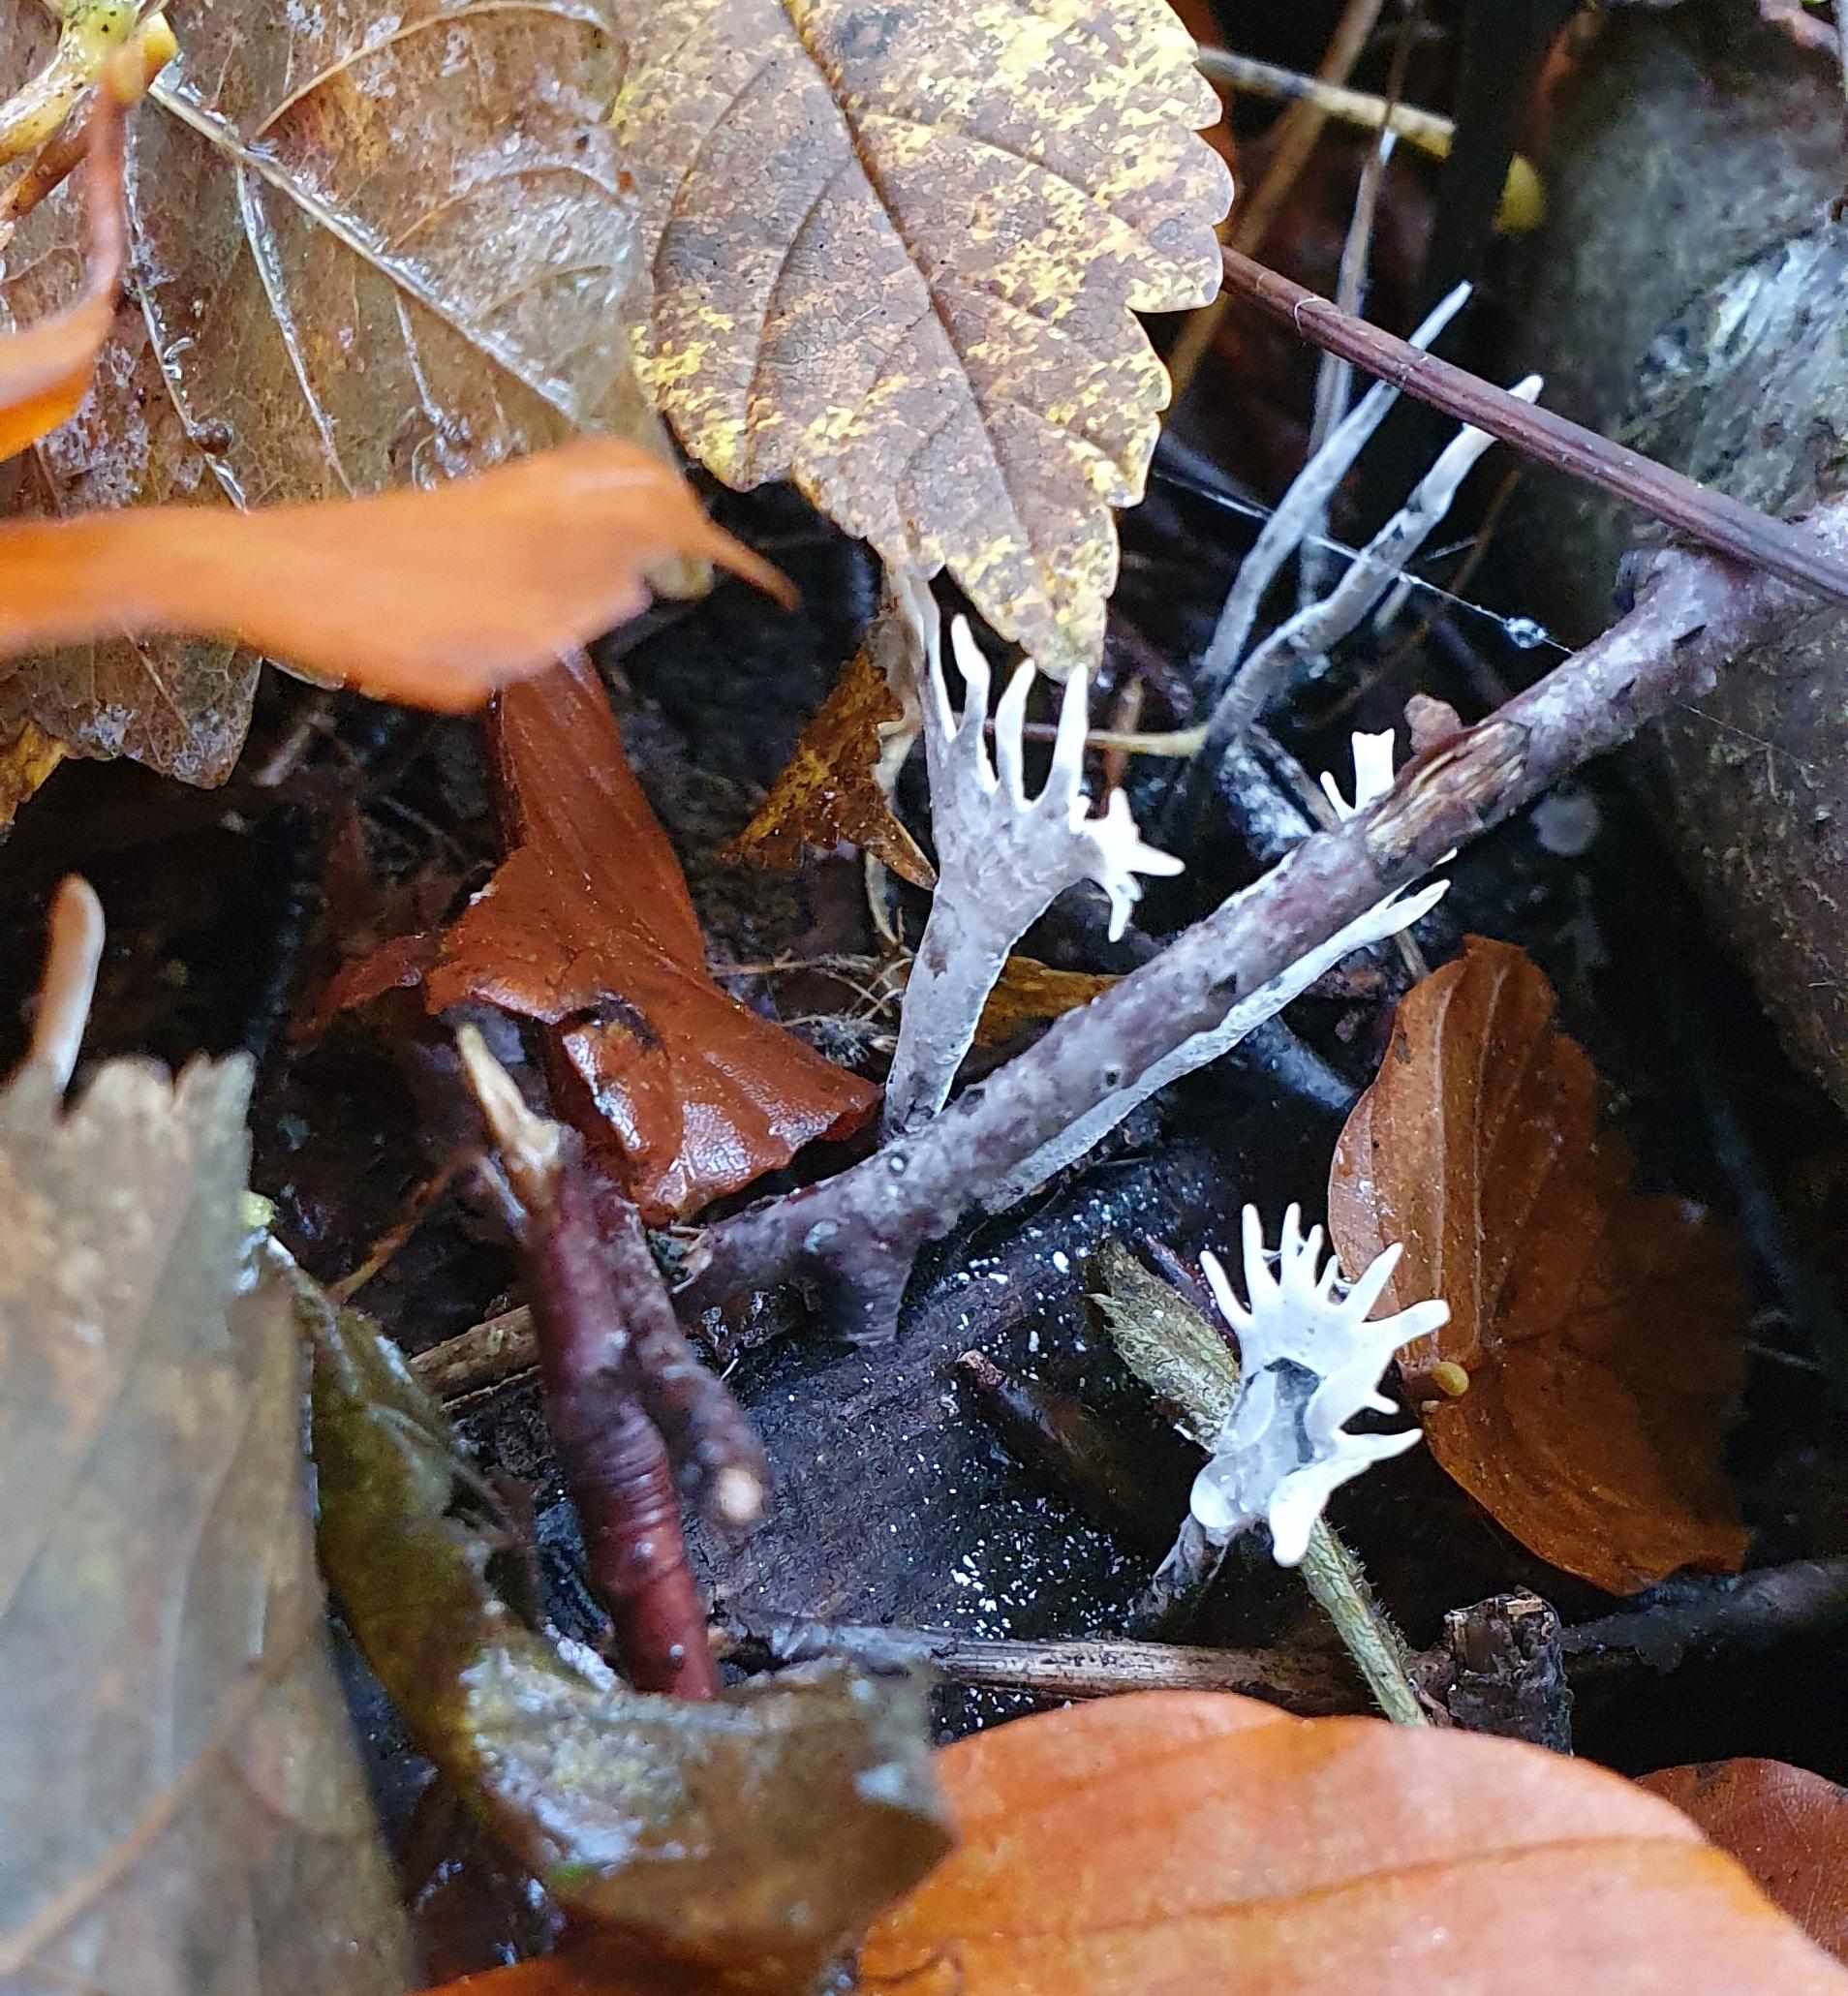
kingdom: Fungi
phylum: Ascomycota
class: Sordariomycetes
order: Xylariales
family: Xylariaceae
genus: Xylaria
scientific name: Xylaria hypoxylon
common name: grenet stødsvamp
